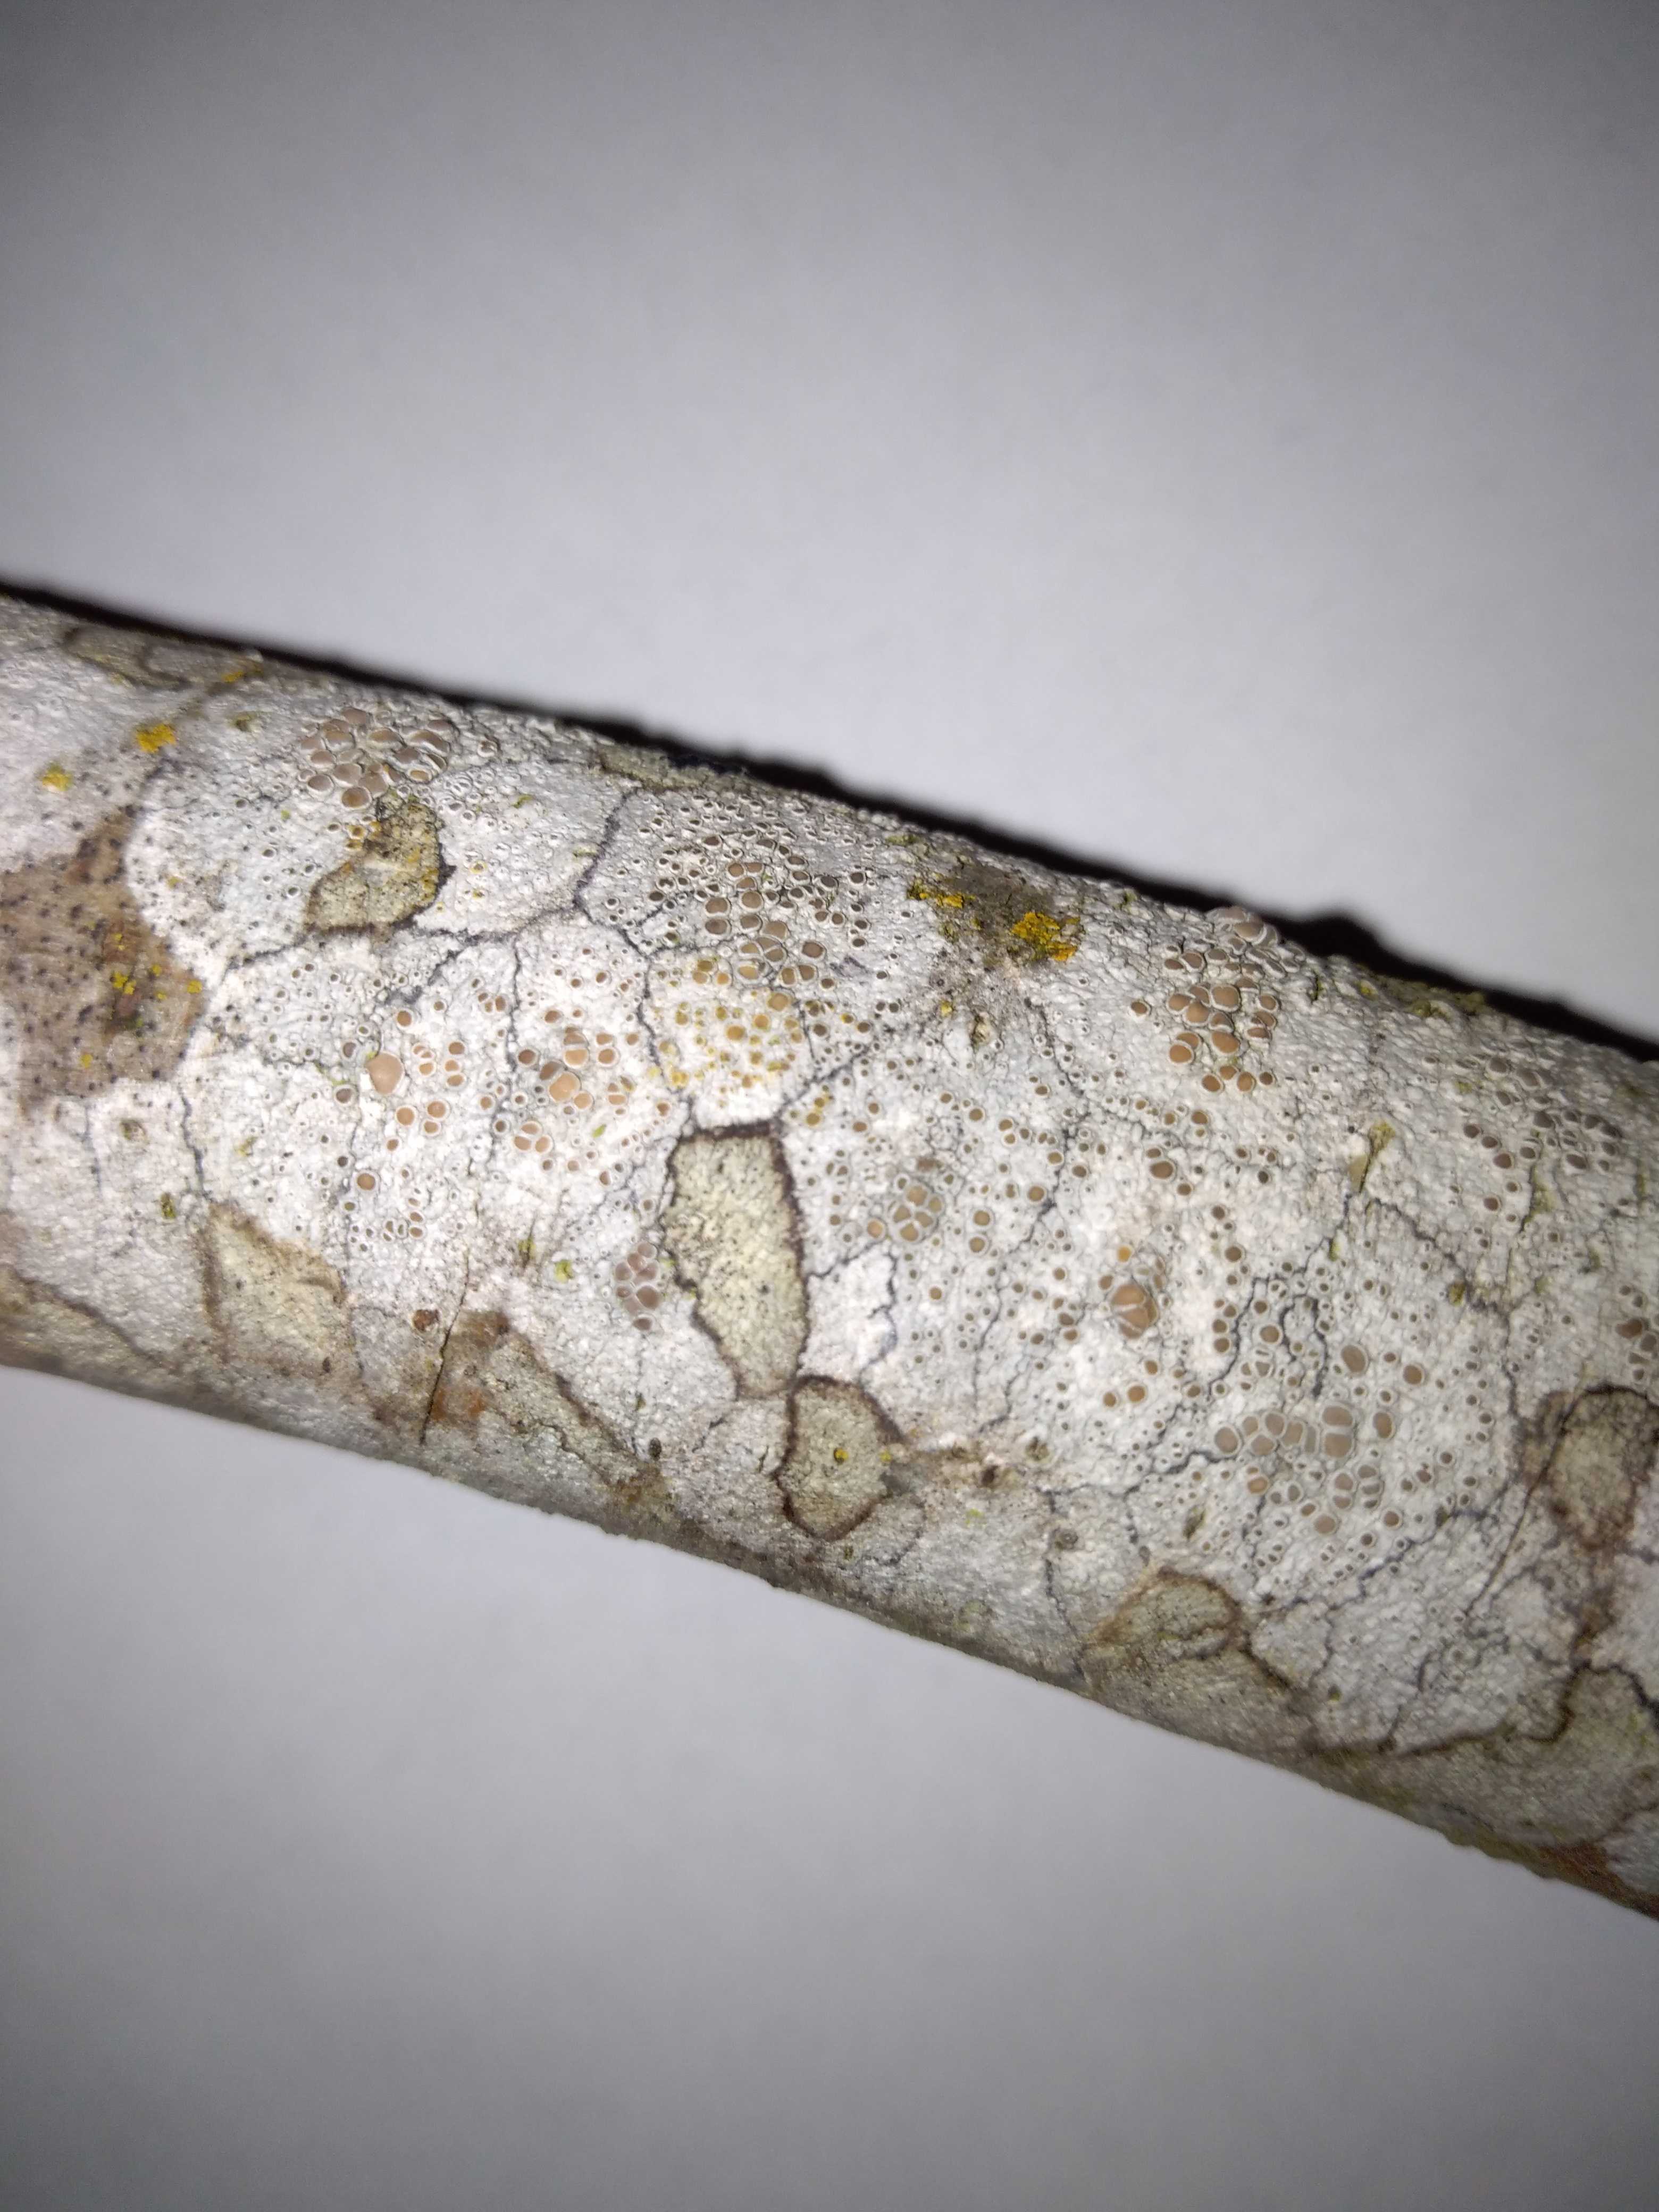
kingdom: Fungi
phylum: Ascomycota
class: Lecanoromycetes
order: Lecanorales
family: Lecanoraceae
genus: Lecanora
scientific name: Lecanora chlarotera
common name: brun kantskivelav
